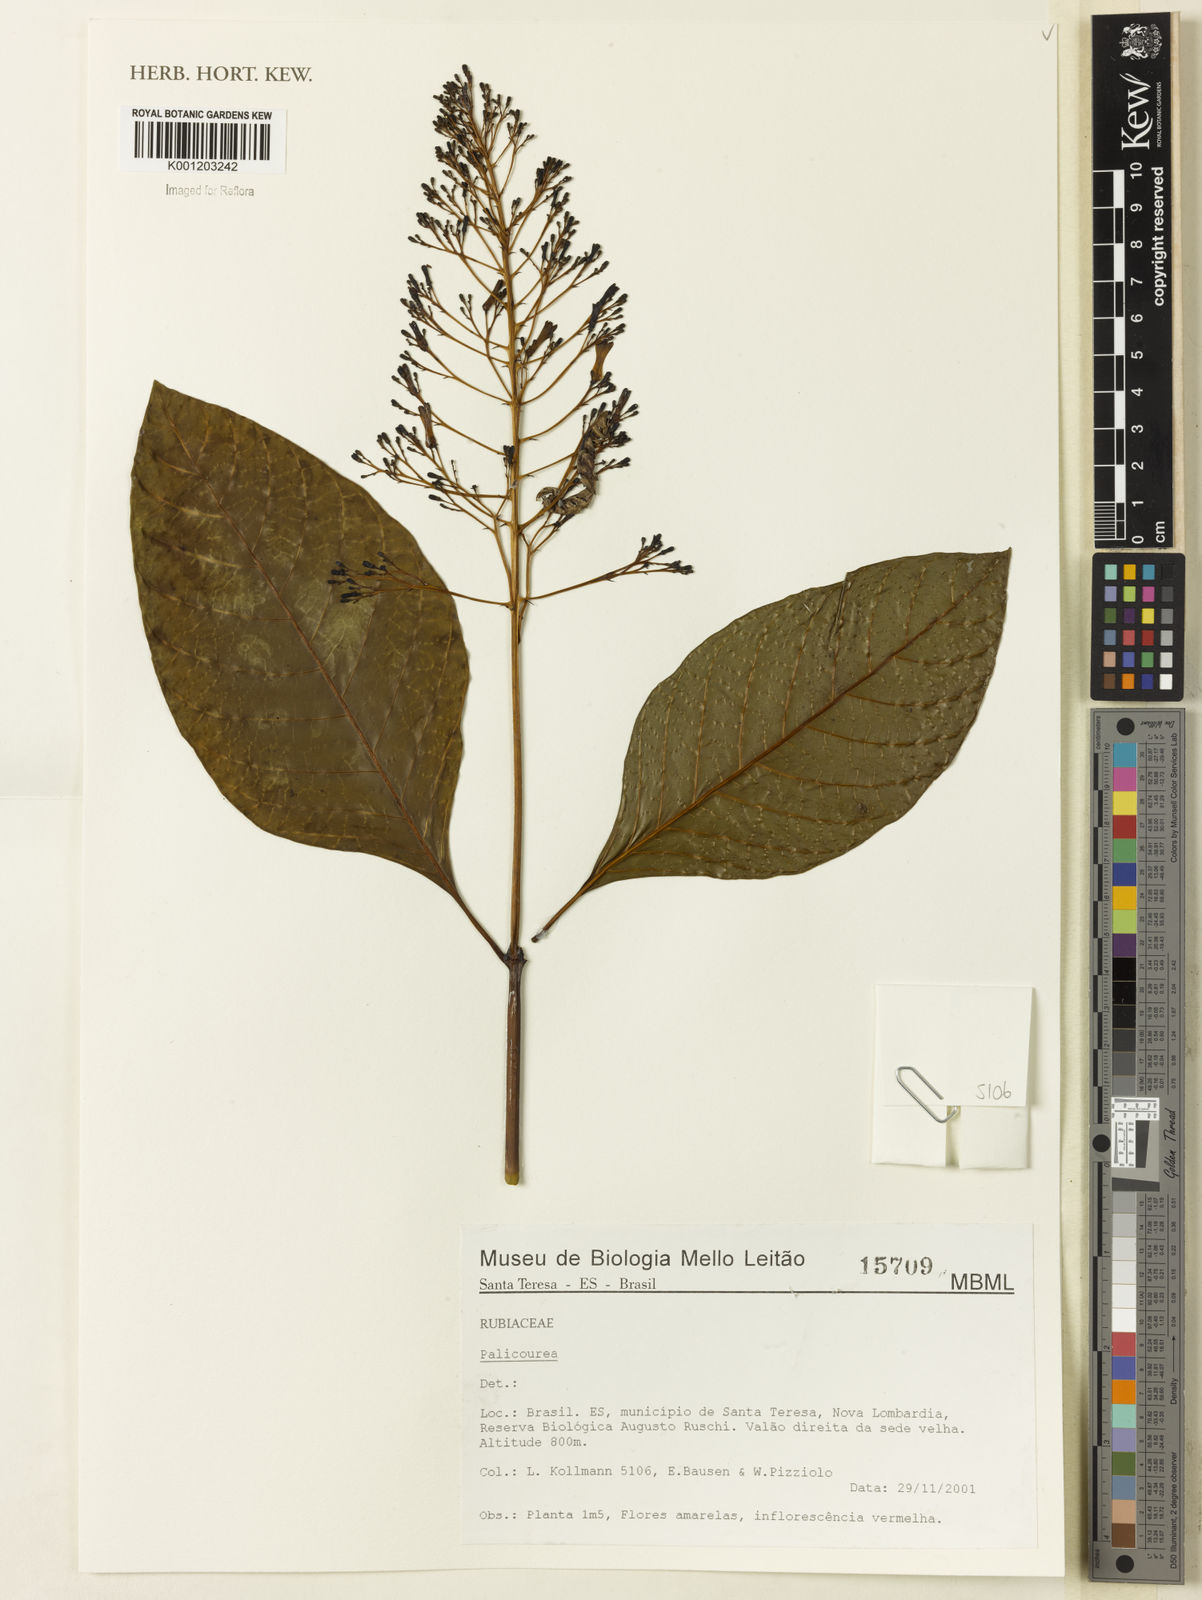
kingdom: Plantae
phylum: Tracheophyta
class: Magnoliopsida
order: Gentianales
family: Rubiaceae
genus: Palicourea
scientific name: Palicourea
